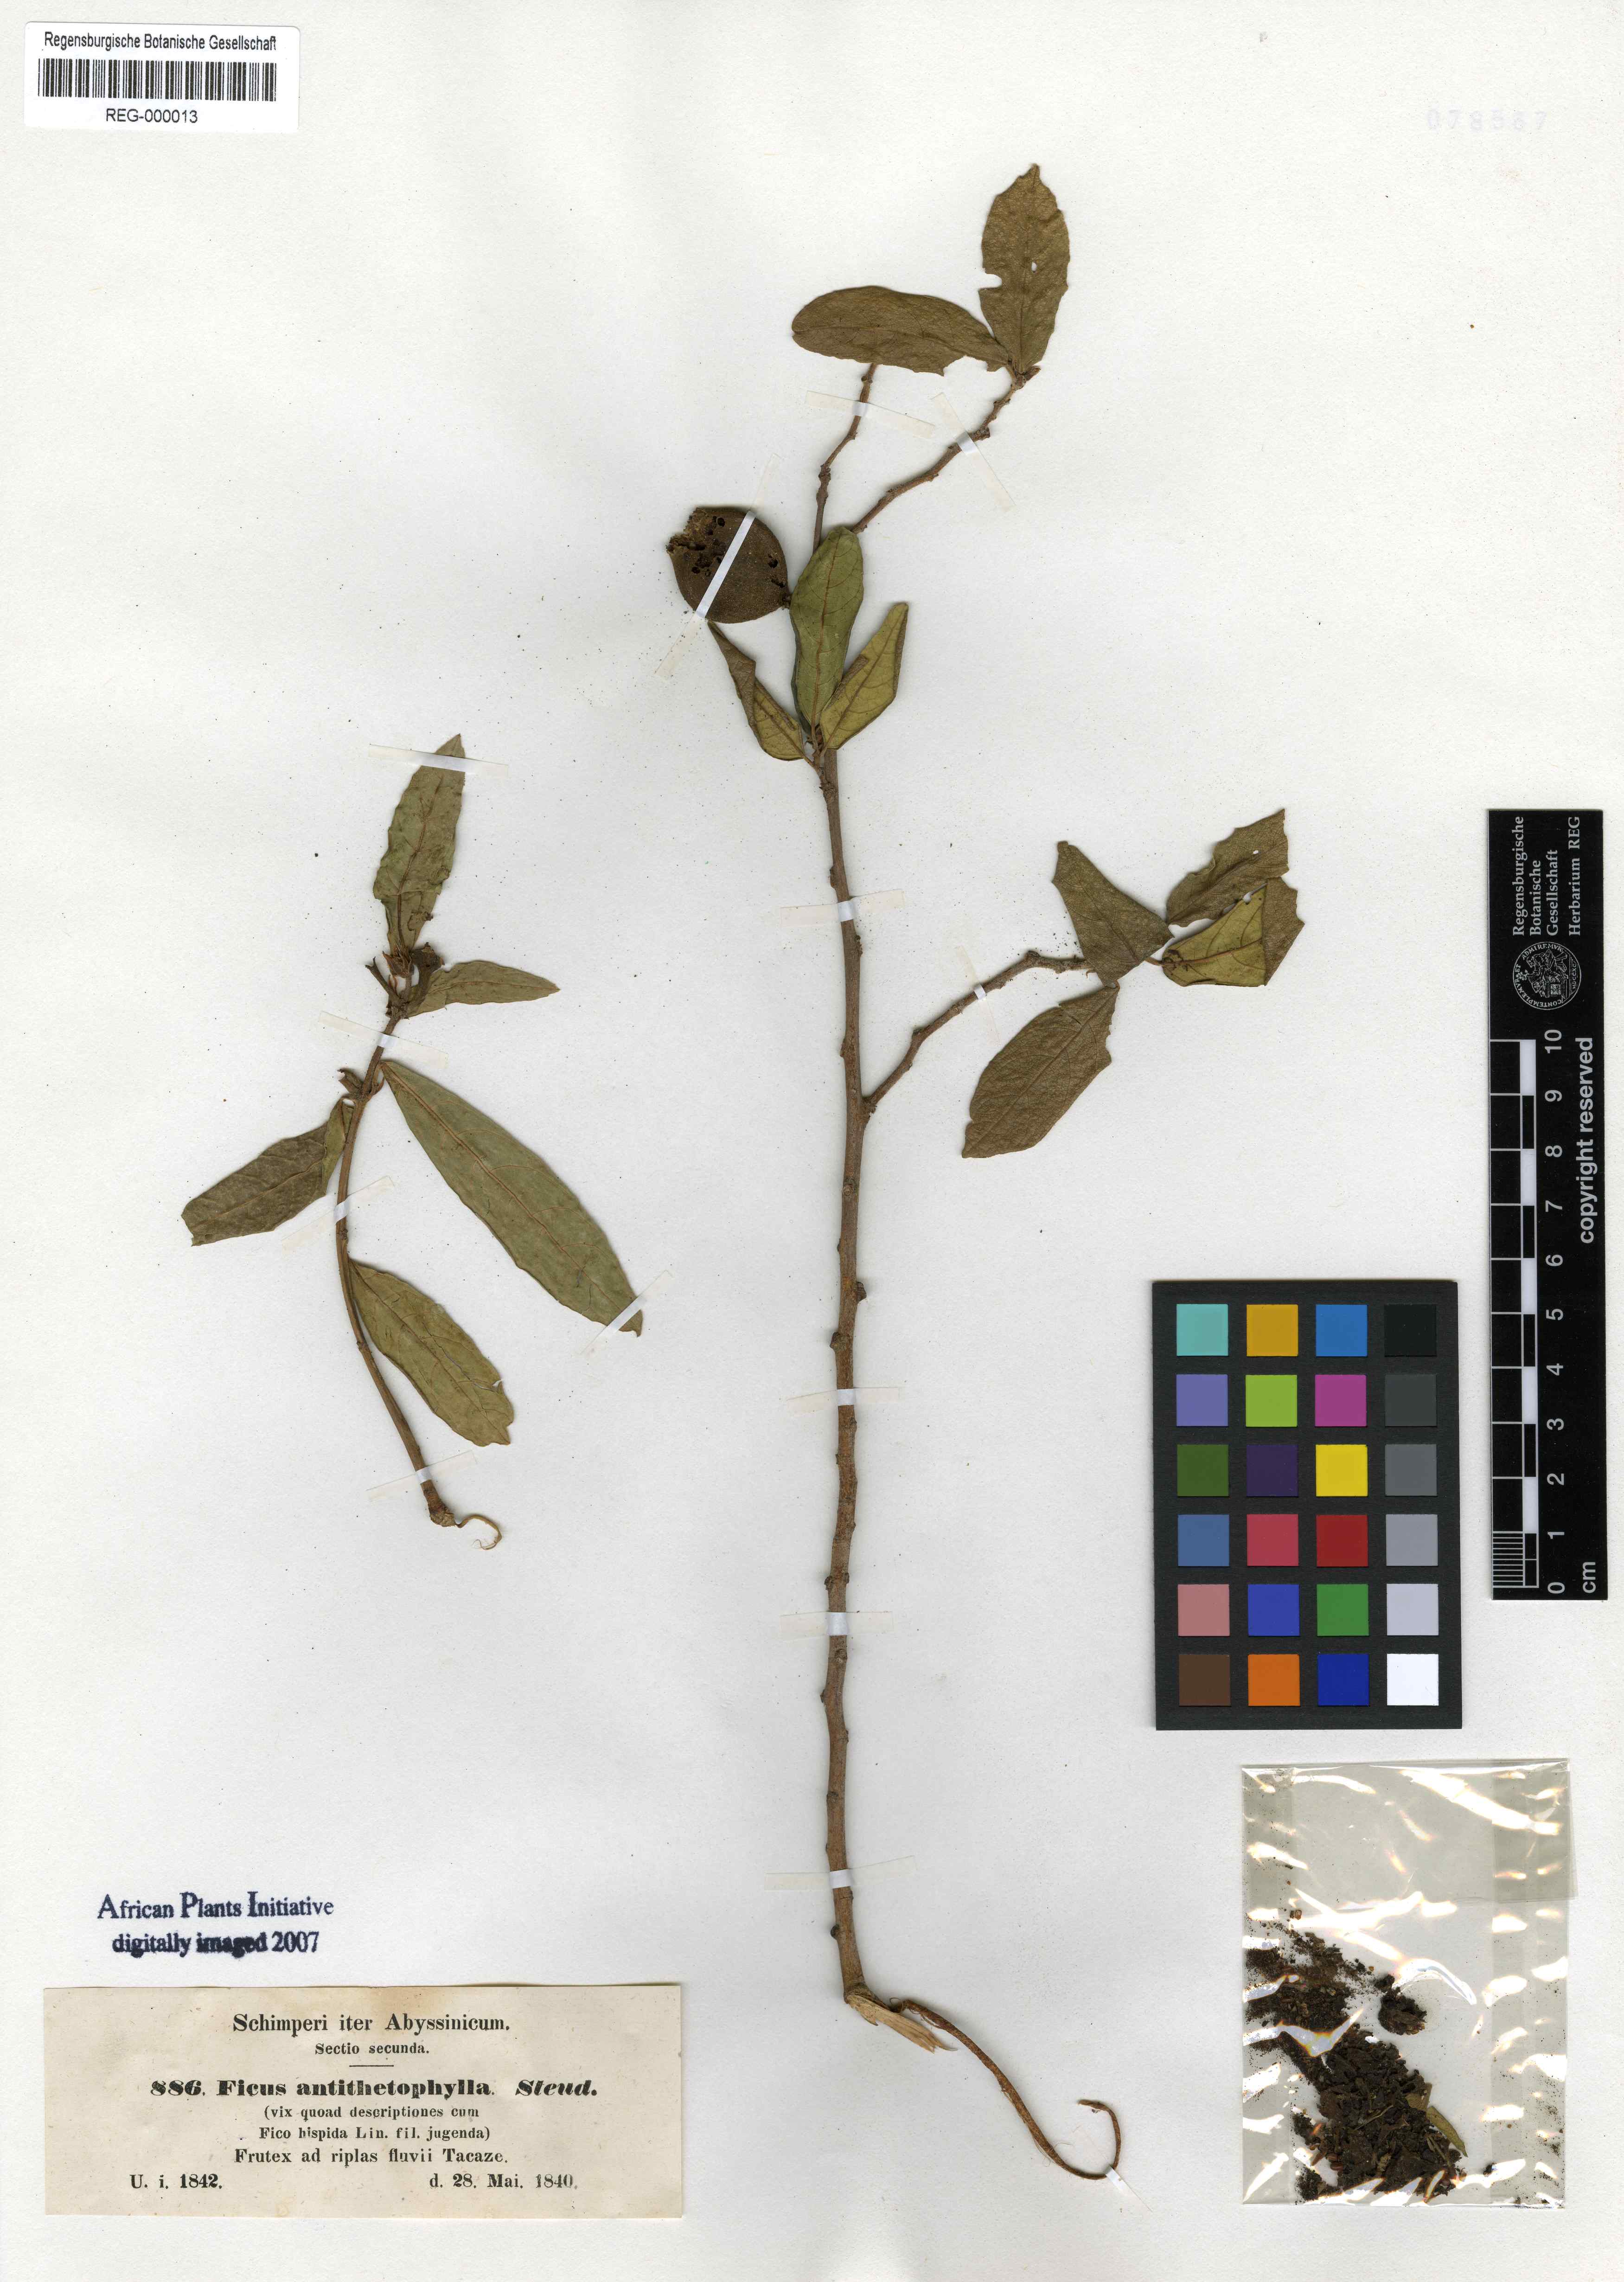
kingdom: Plantae
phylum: Tracheophyta
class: Magnoliopsida
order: Rosales
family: Moraceae
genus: Ficus
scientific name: Ficus capreifolia
